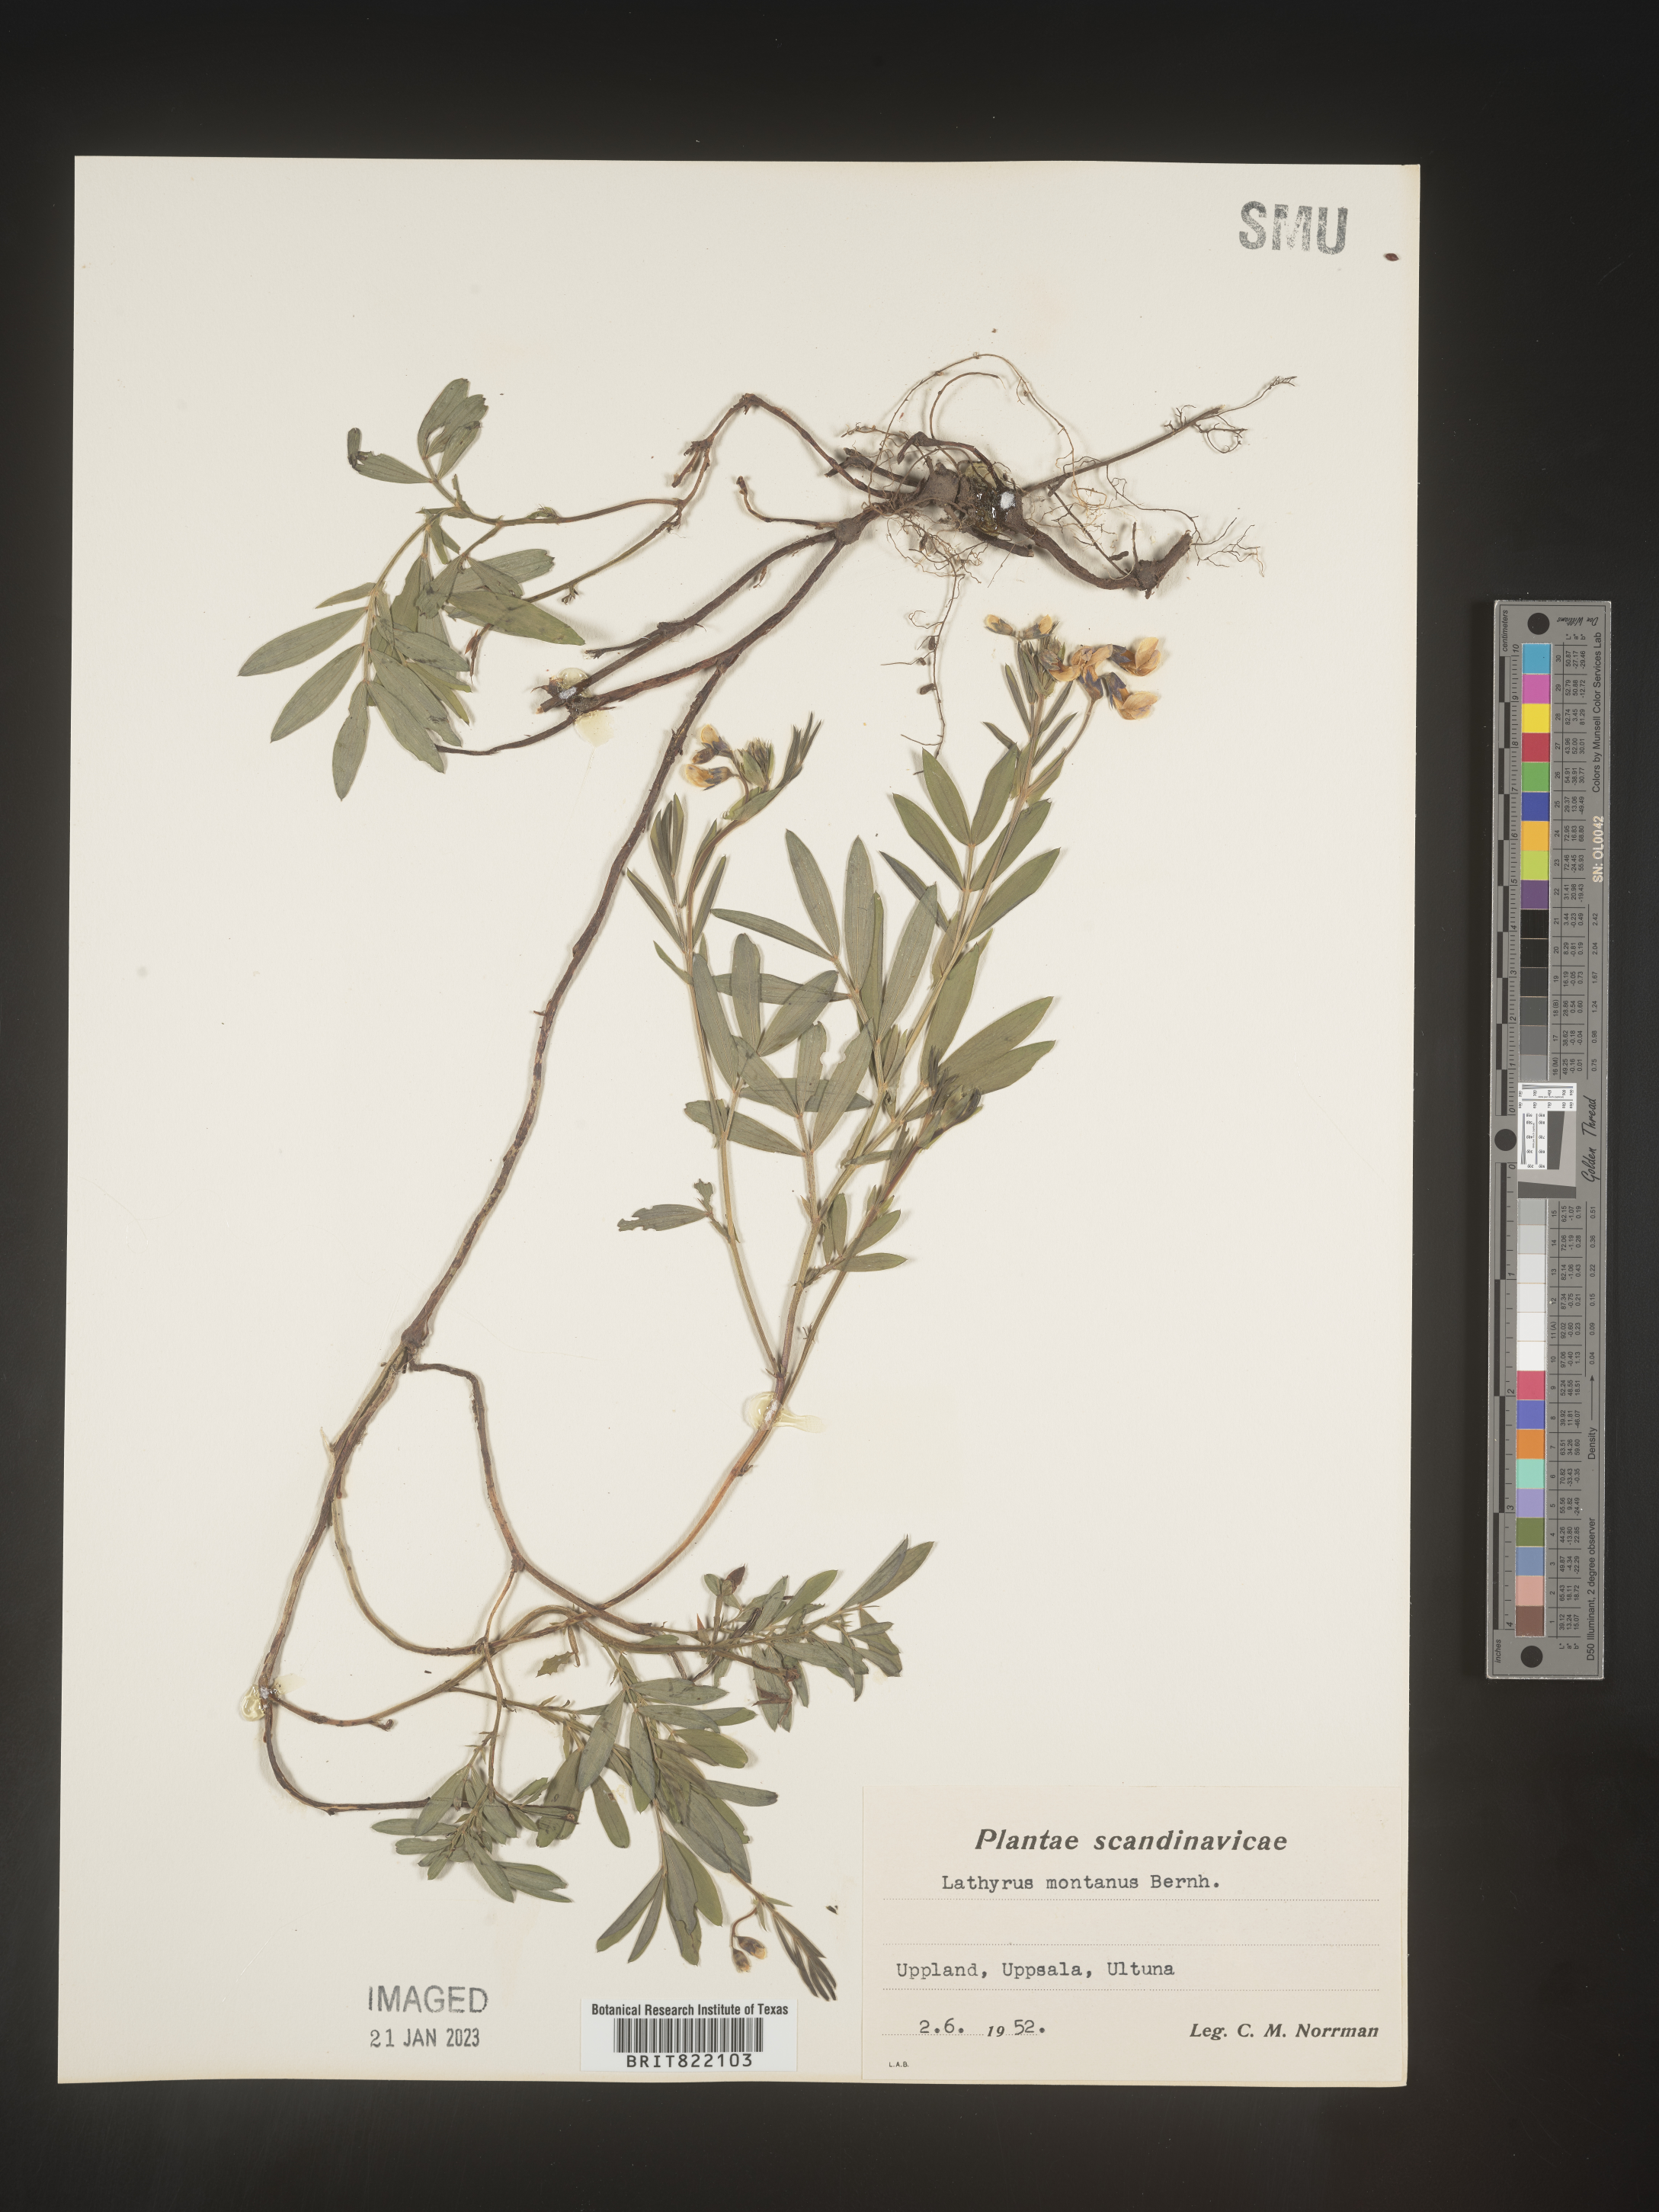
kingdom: Plantae
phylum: Tracheophyta
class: Magnoliopsida
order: Fabales
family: Fabaceae
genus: Lathyrus
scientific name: Lathyrus
